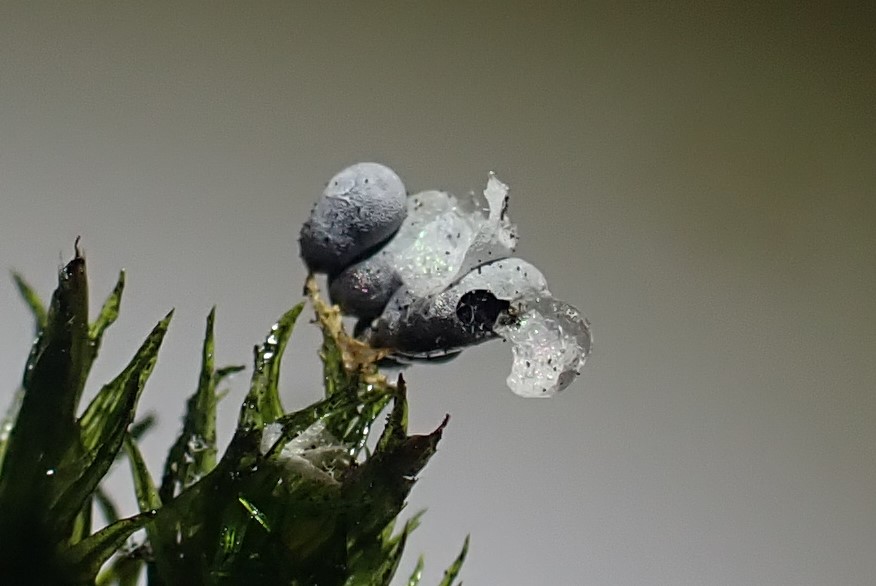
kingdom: Protozoa
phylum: Mycetozoa
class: Myxomycetes
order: Physarales
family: Physaraceae
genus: Badhamia
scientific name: Badhamia utricularis
